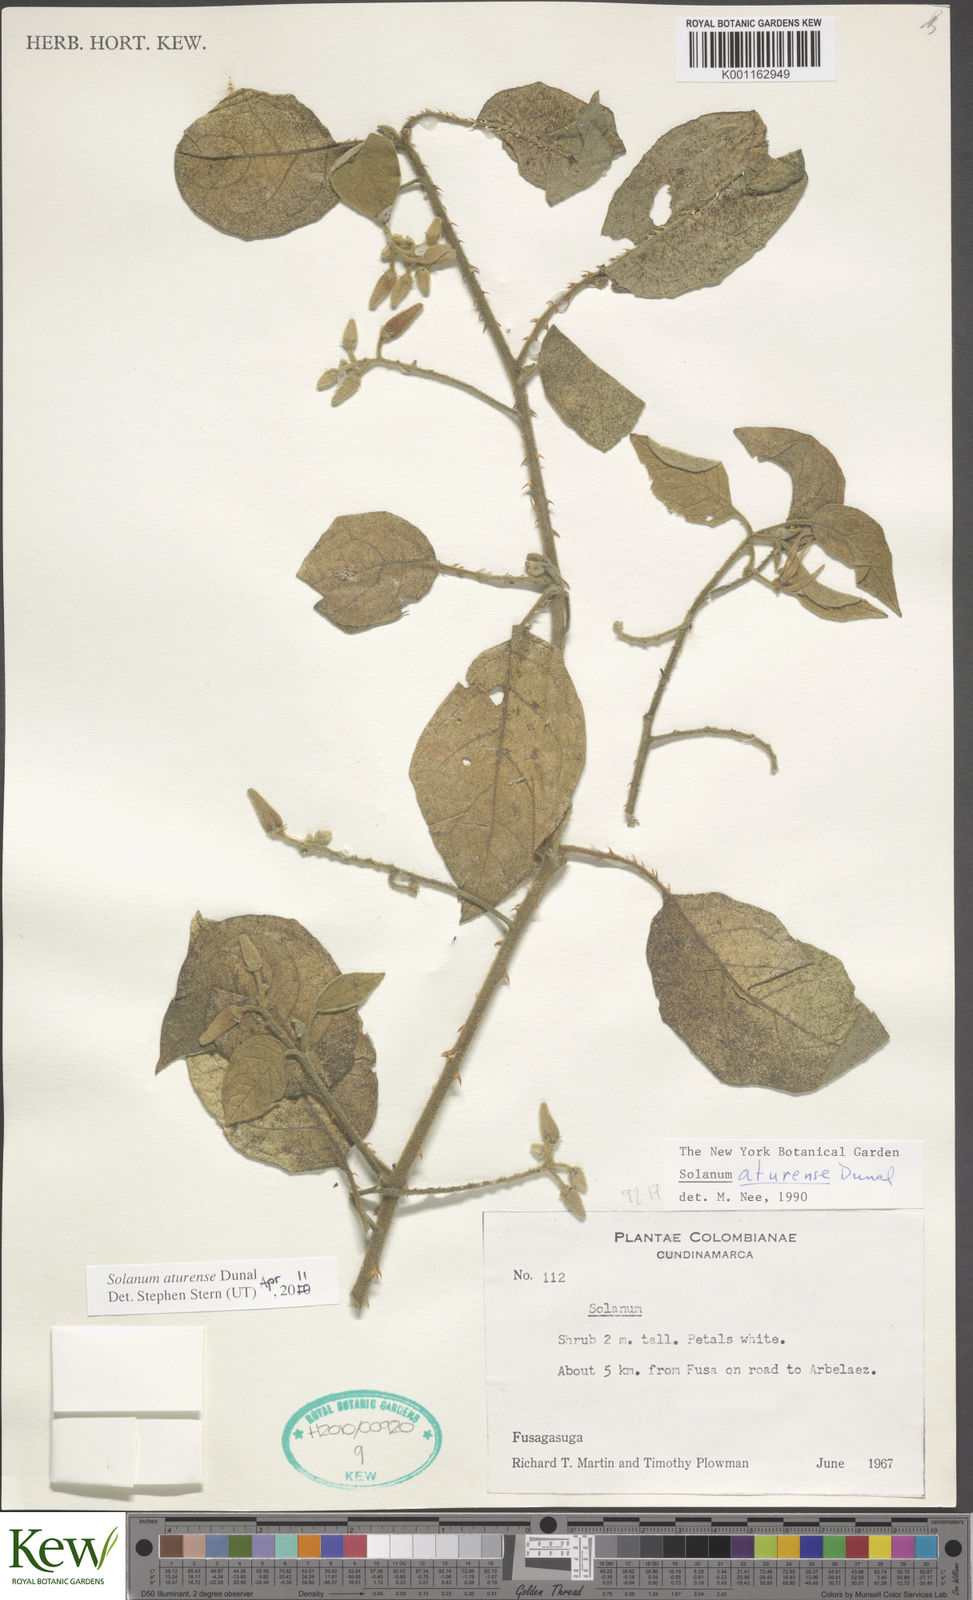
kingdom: Plantae
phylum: Tracheophyta
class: Magnoliopsida
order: Solanales
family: Solanaceae
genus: Solanum
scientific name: Solanum aturense
